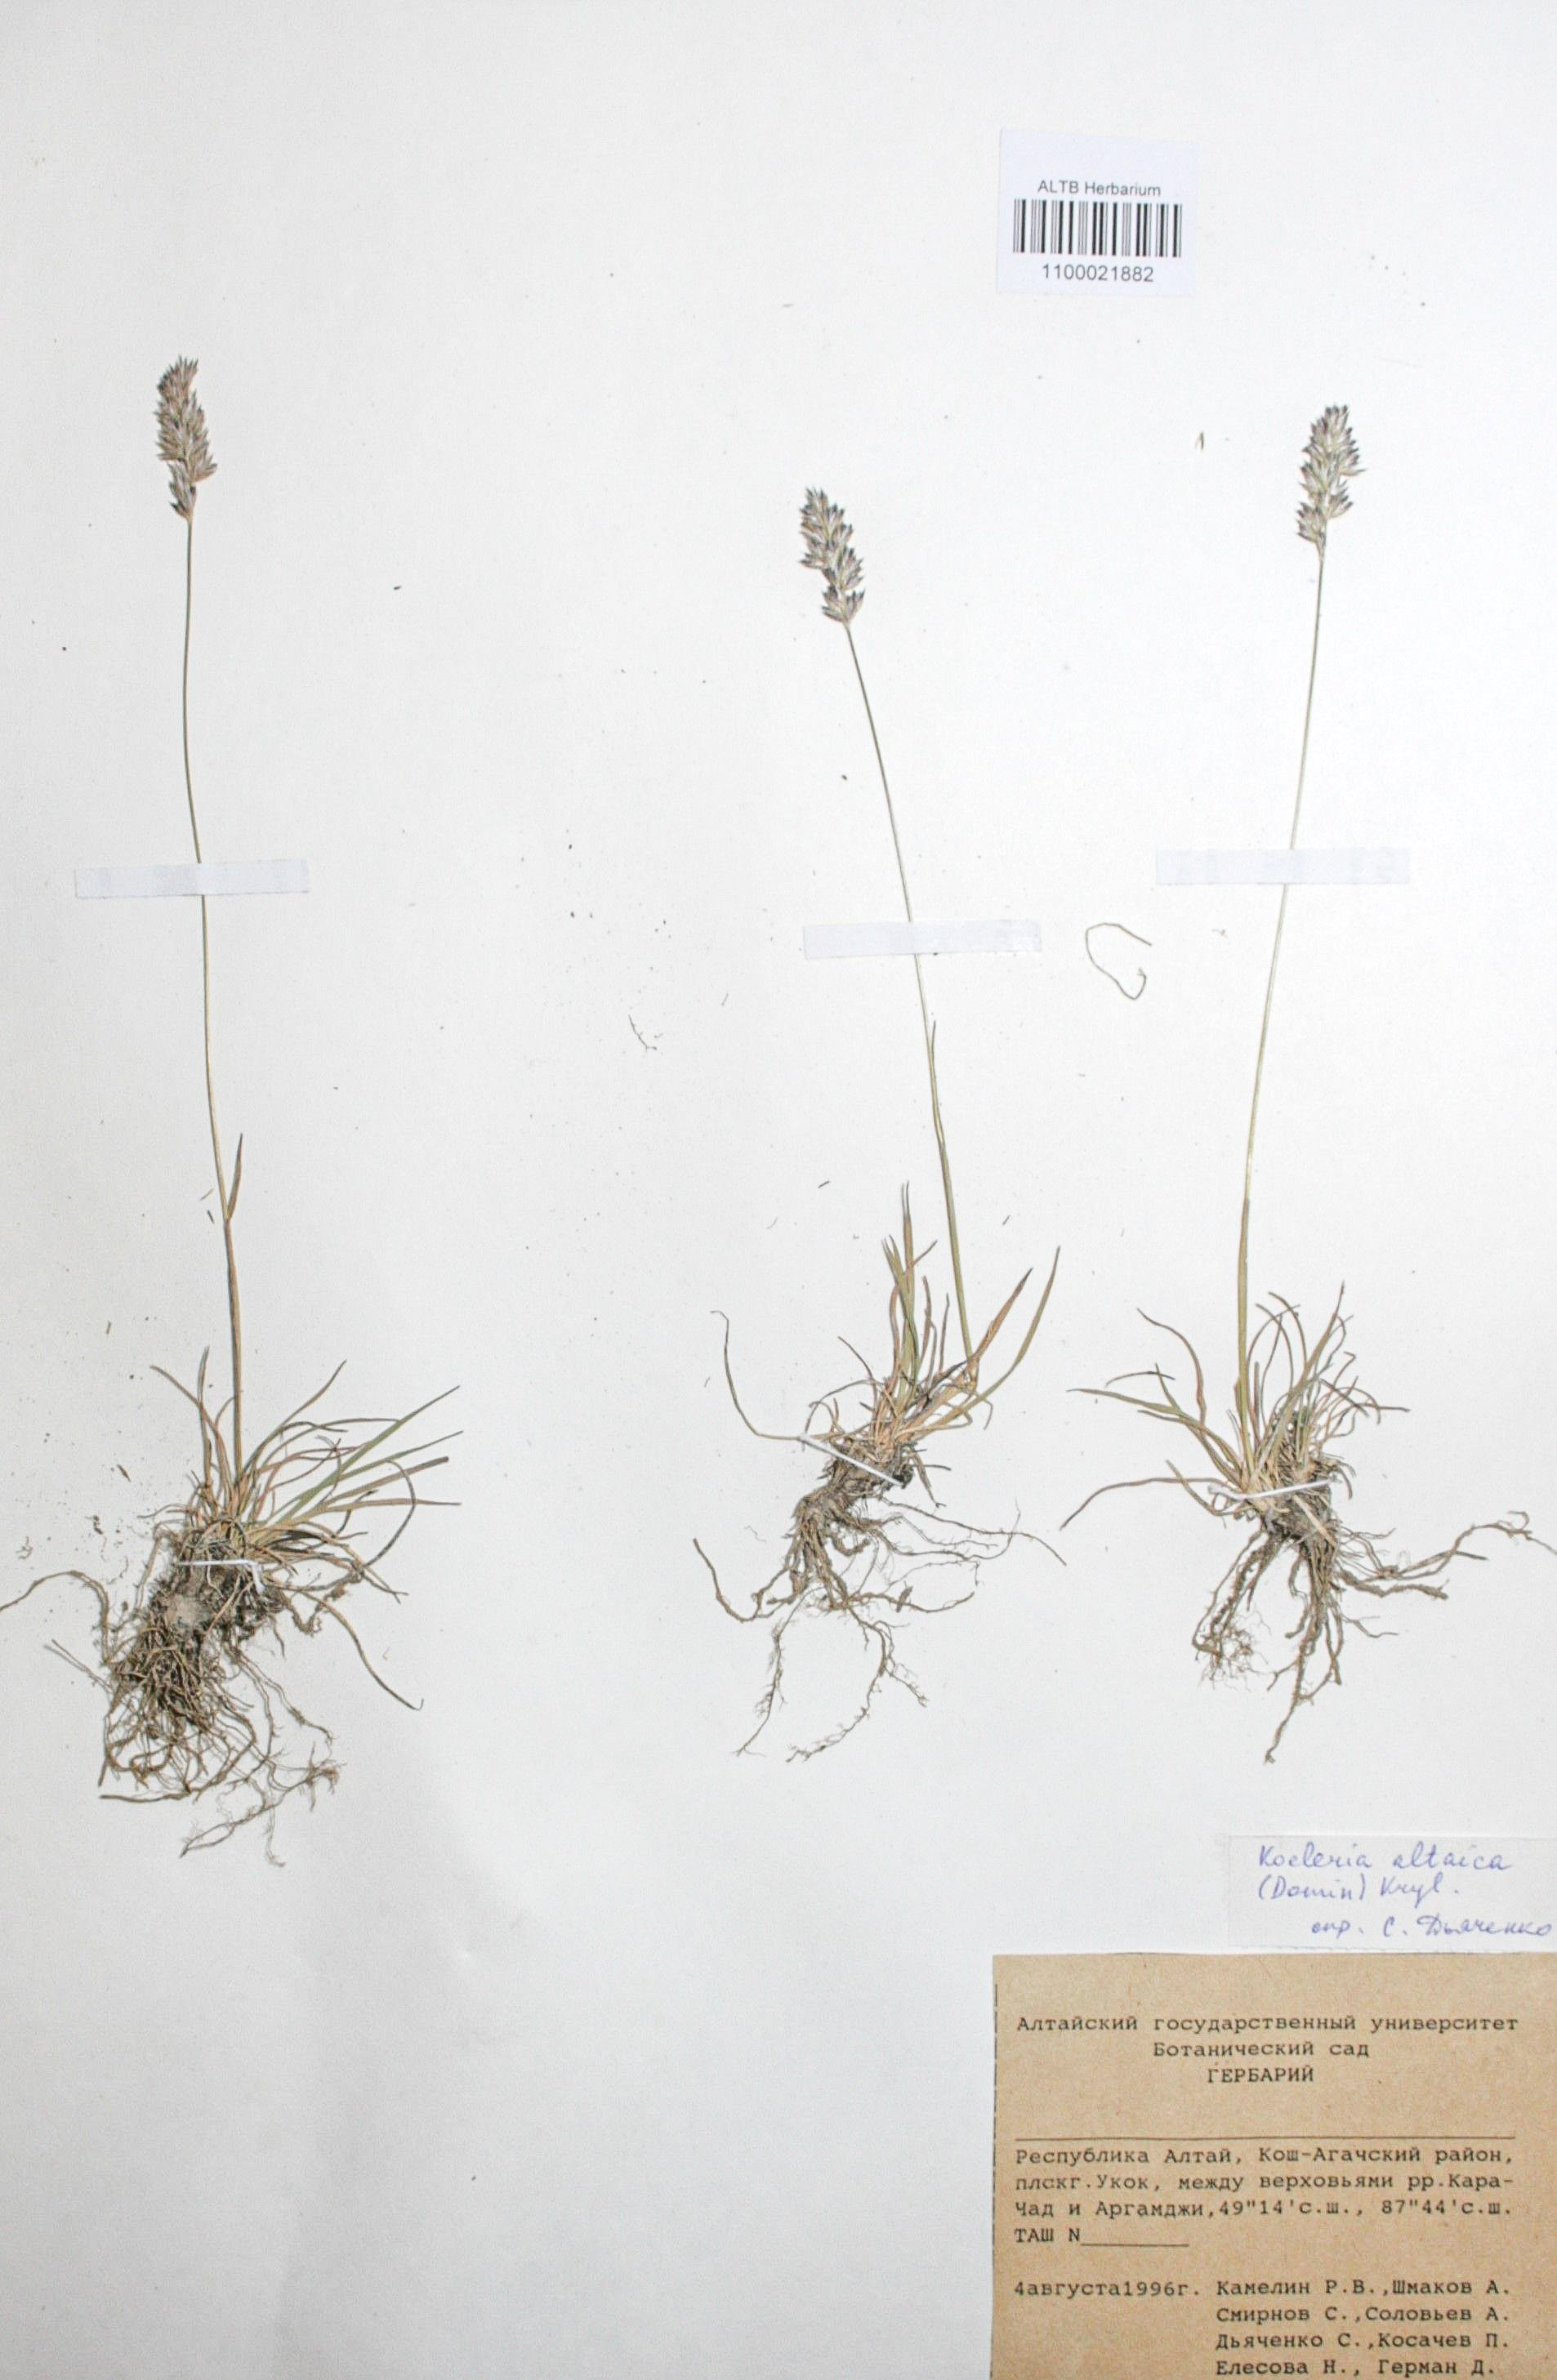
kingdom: Plantae
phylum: Tracheophyta
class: Liliopsida
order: Poales
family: Poaceae
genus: Koeleria
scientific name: Koeleria altaica
